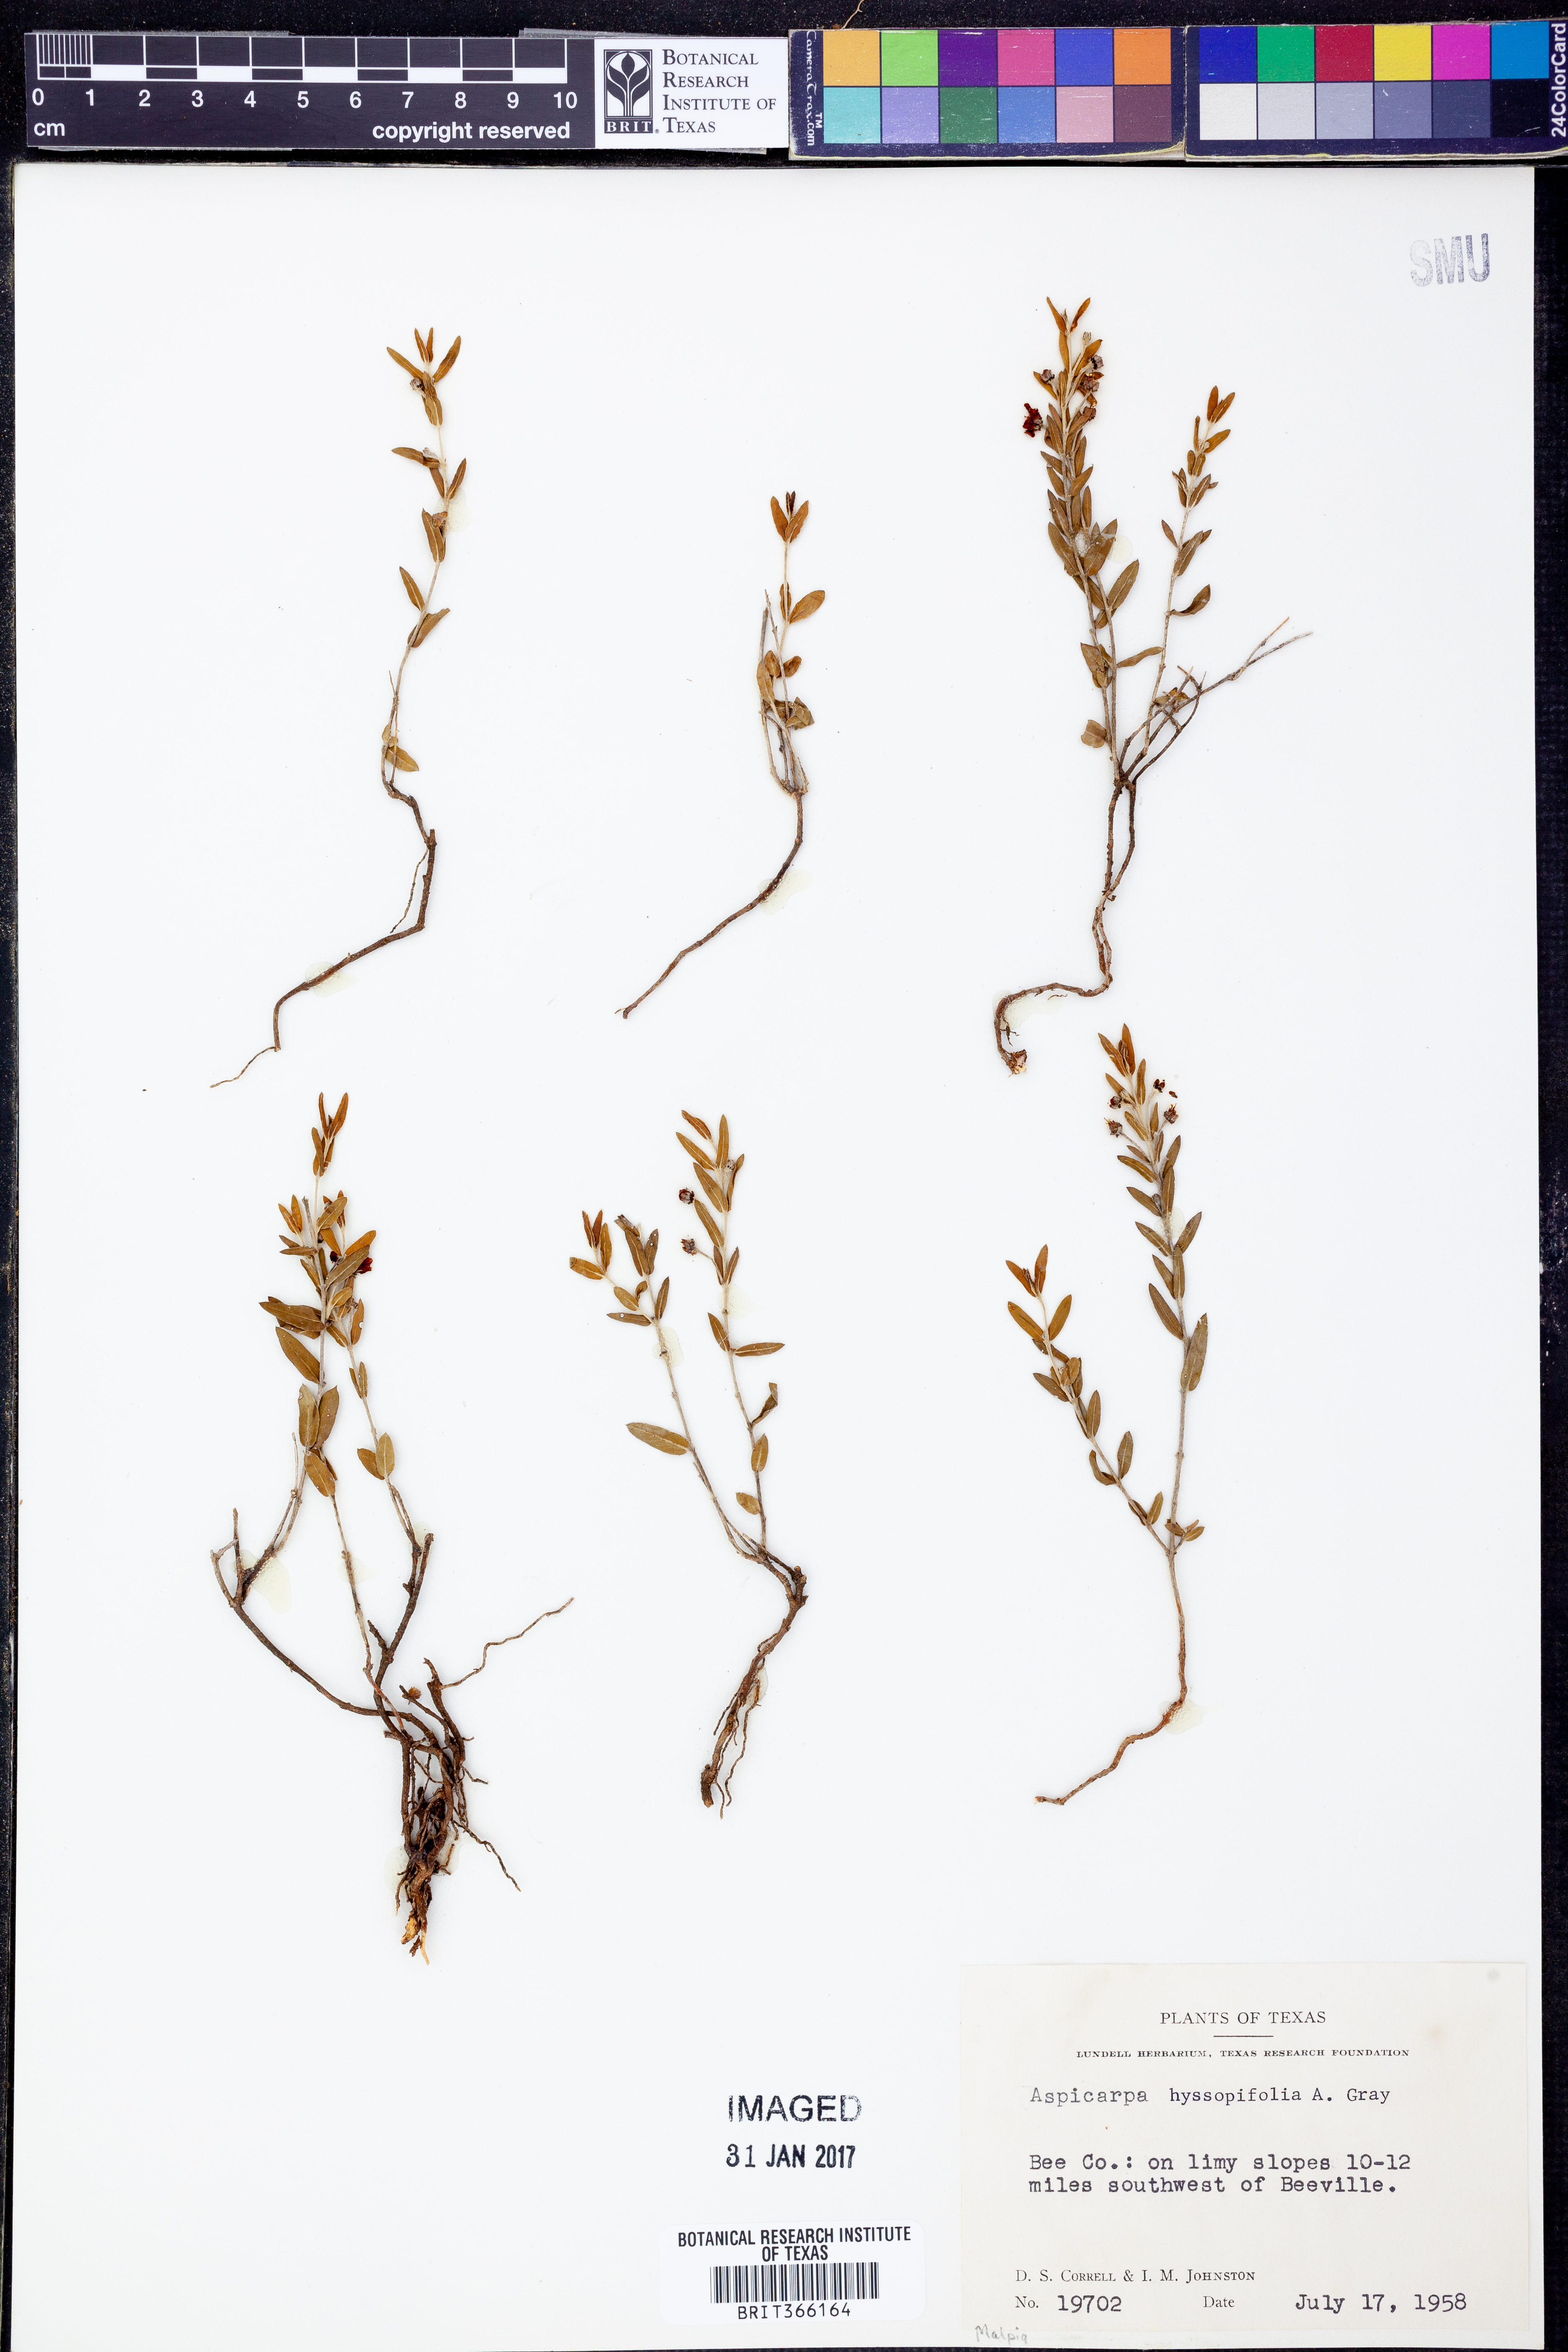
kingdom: Plantae
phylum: Tracheophyta
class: Magnoliopsida
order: Malpighiales
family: Malpighiaceae
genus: Aspicarpa
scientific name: Aspicarpa hyssopifolia
